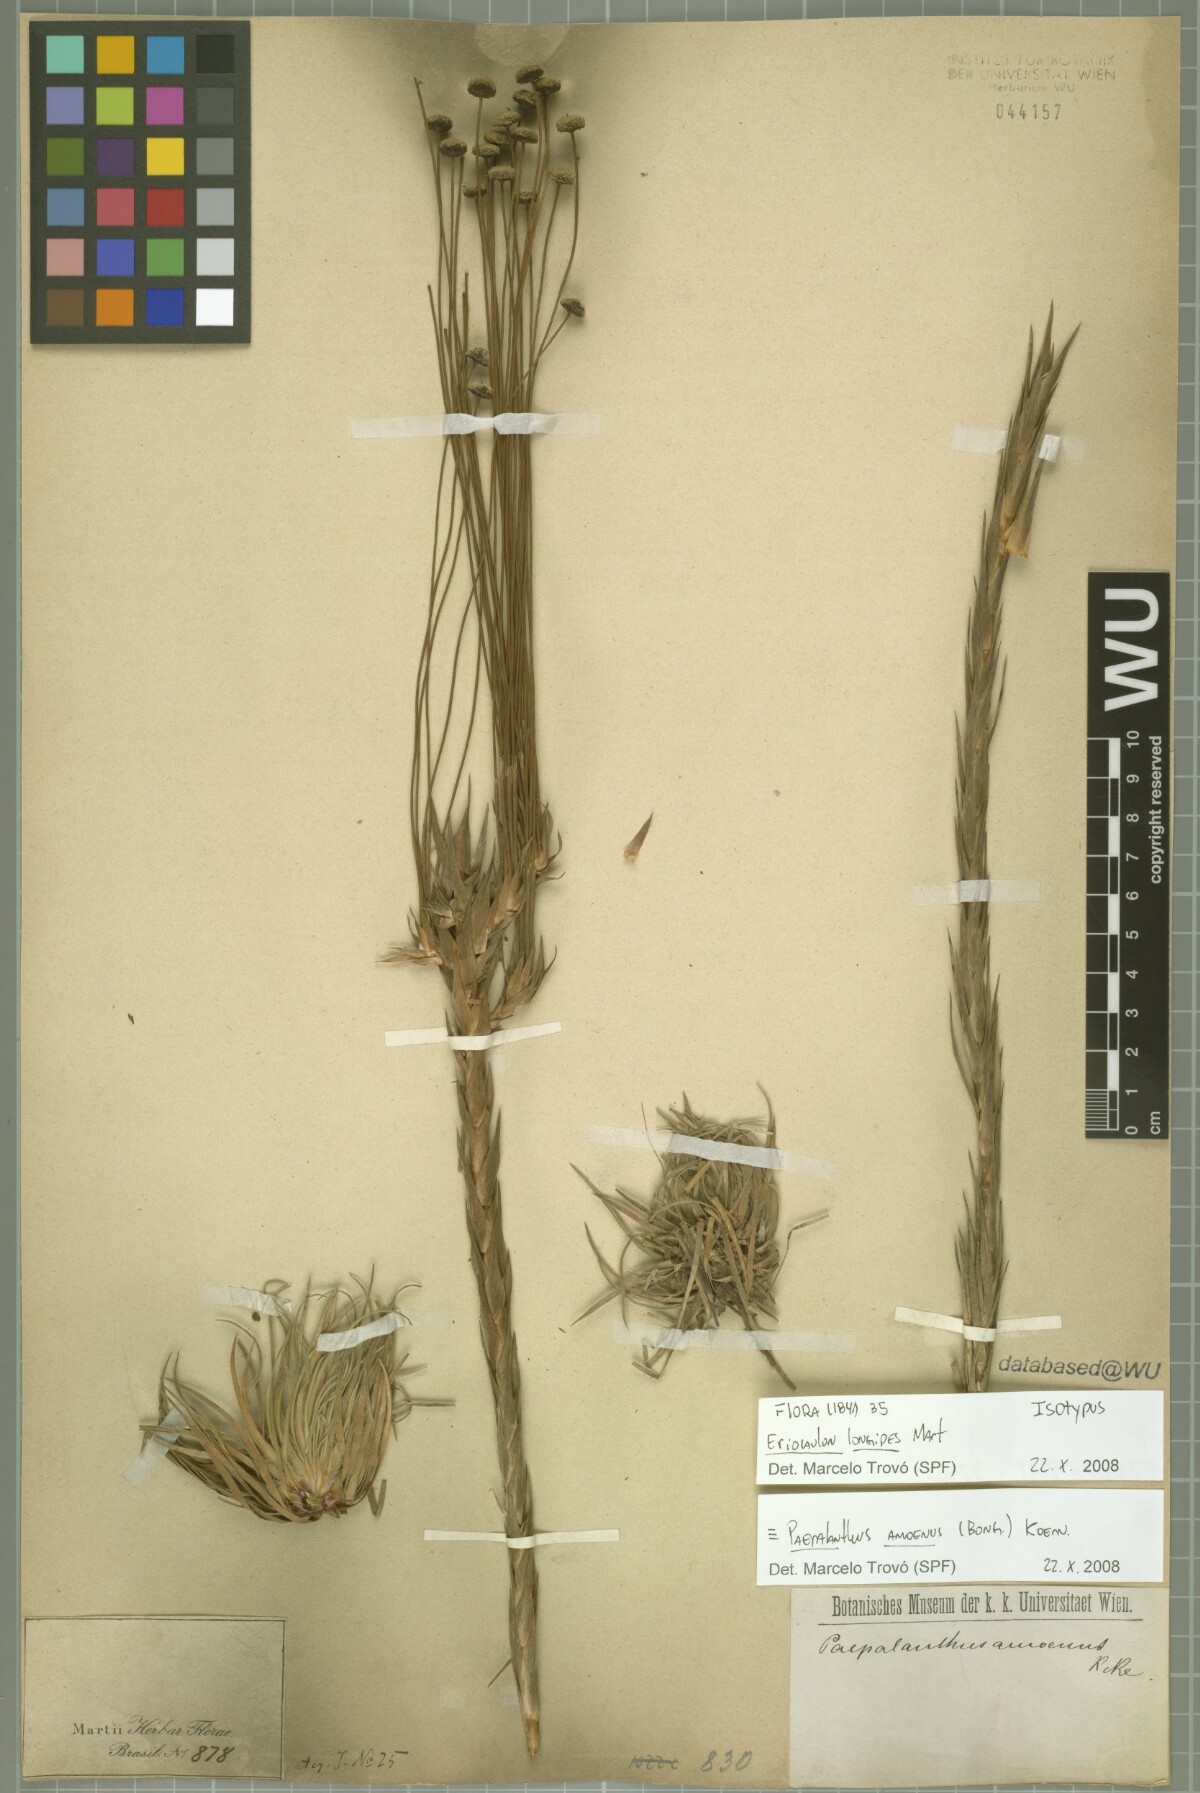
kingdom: Plantae
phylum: Tracheophyta
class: Liliopsida
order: Poales
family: Eriocaulaceae
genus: Paepalanthus
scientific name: Paepalanthus amoenus
